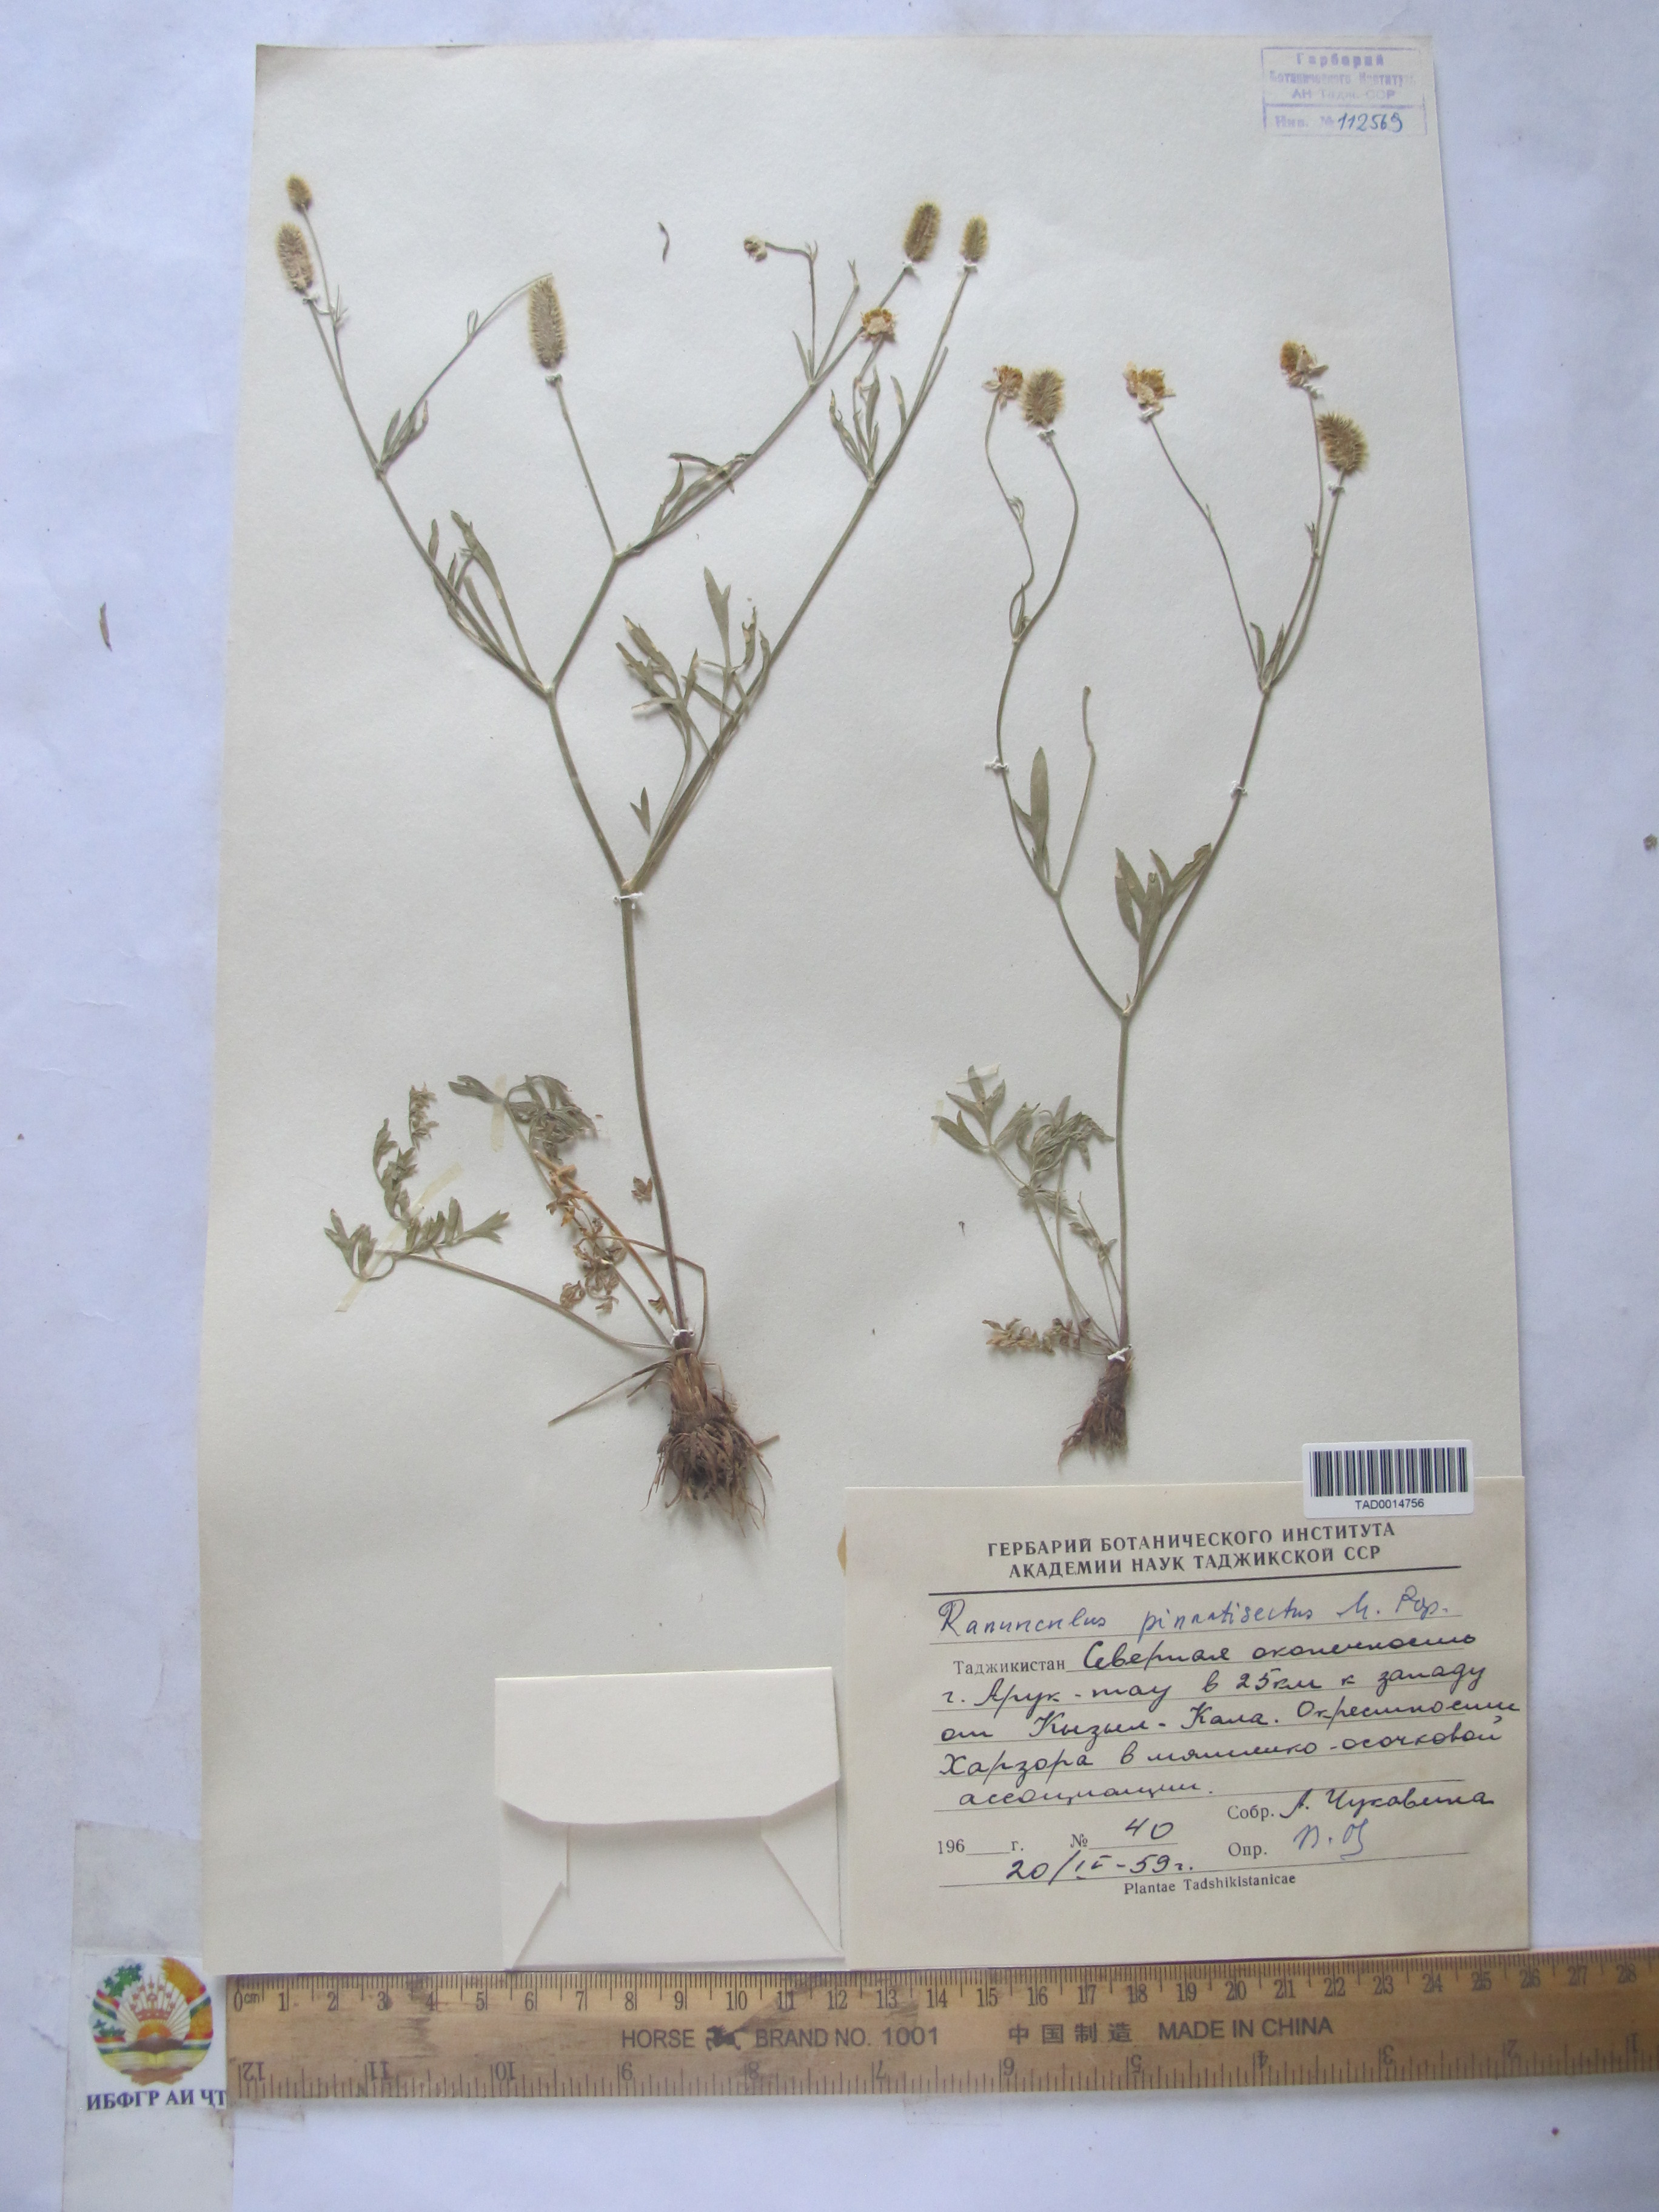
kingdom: Plantae
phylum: Tracheophyta
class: Magnoliopsida
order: Ranunculales
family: Ranunculaceae
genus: Ranunculus
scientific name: Ranunculus pinnatisectus
